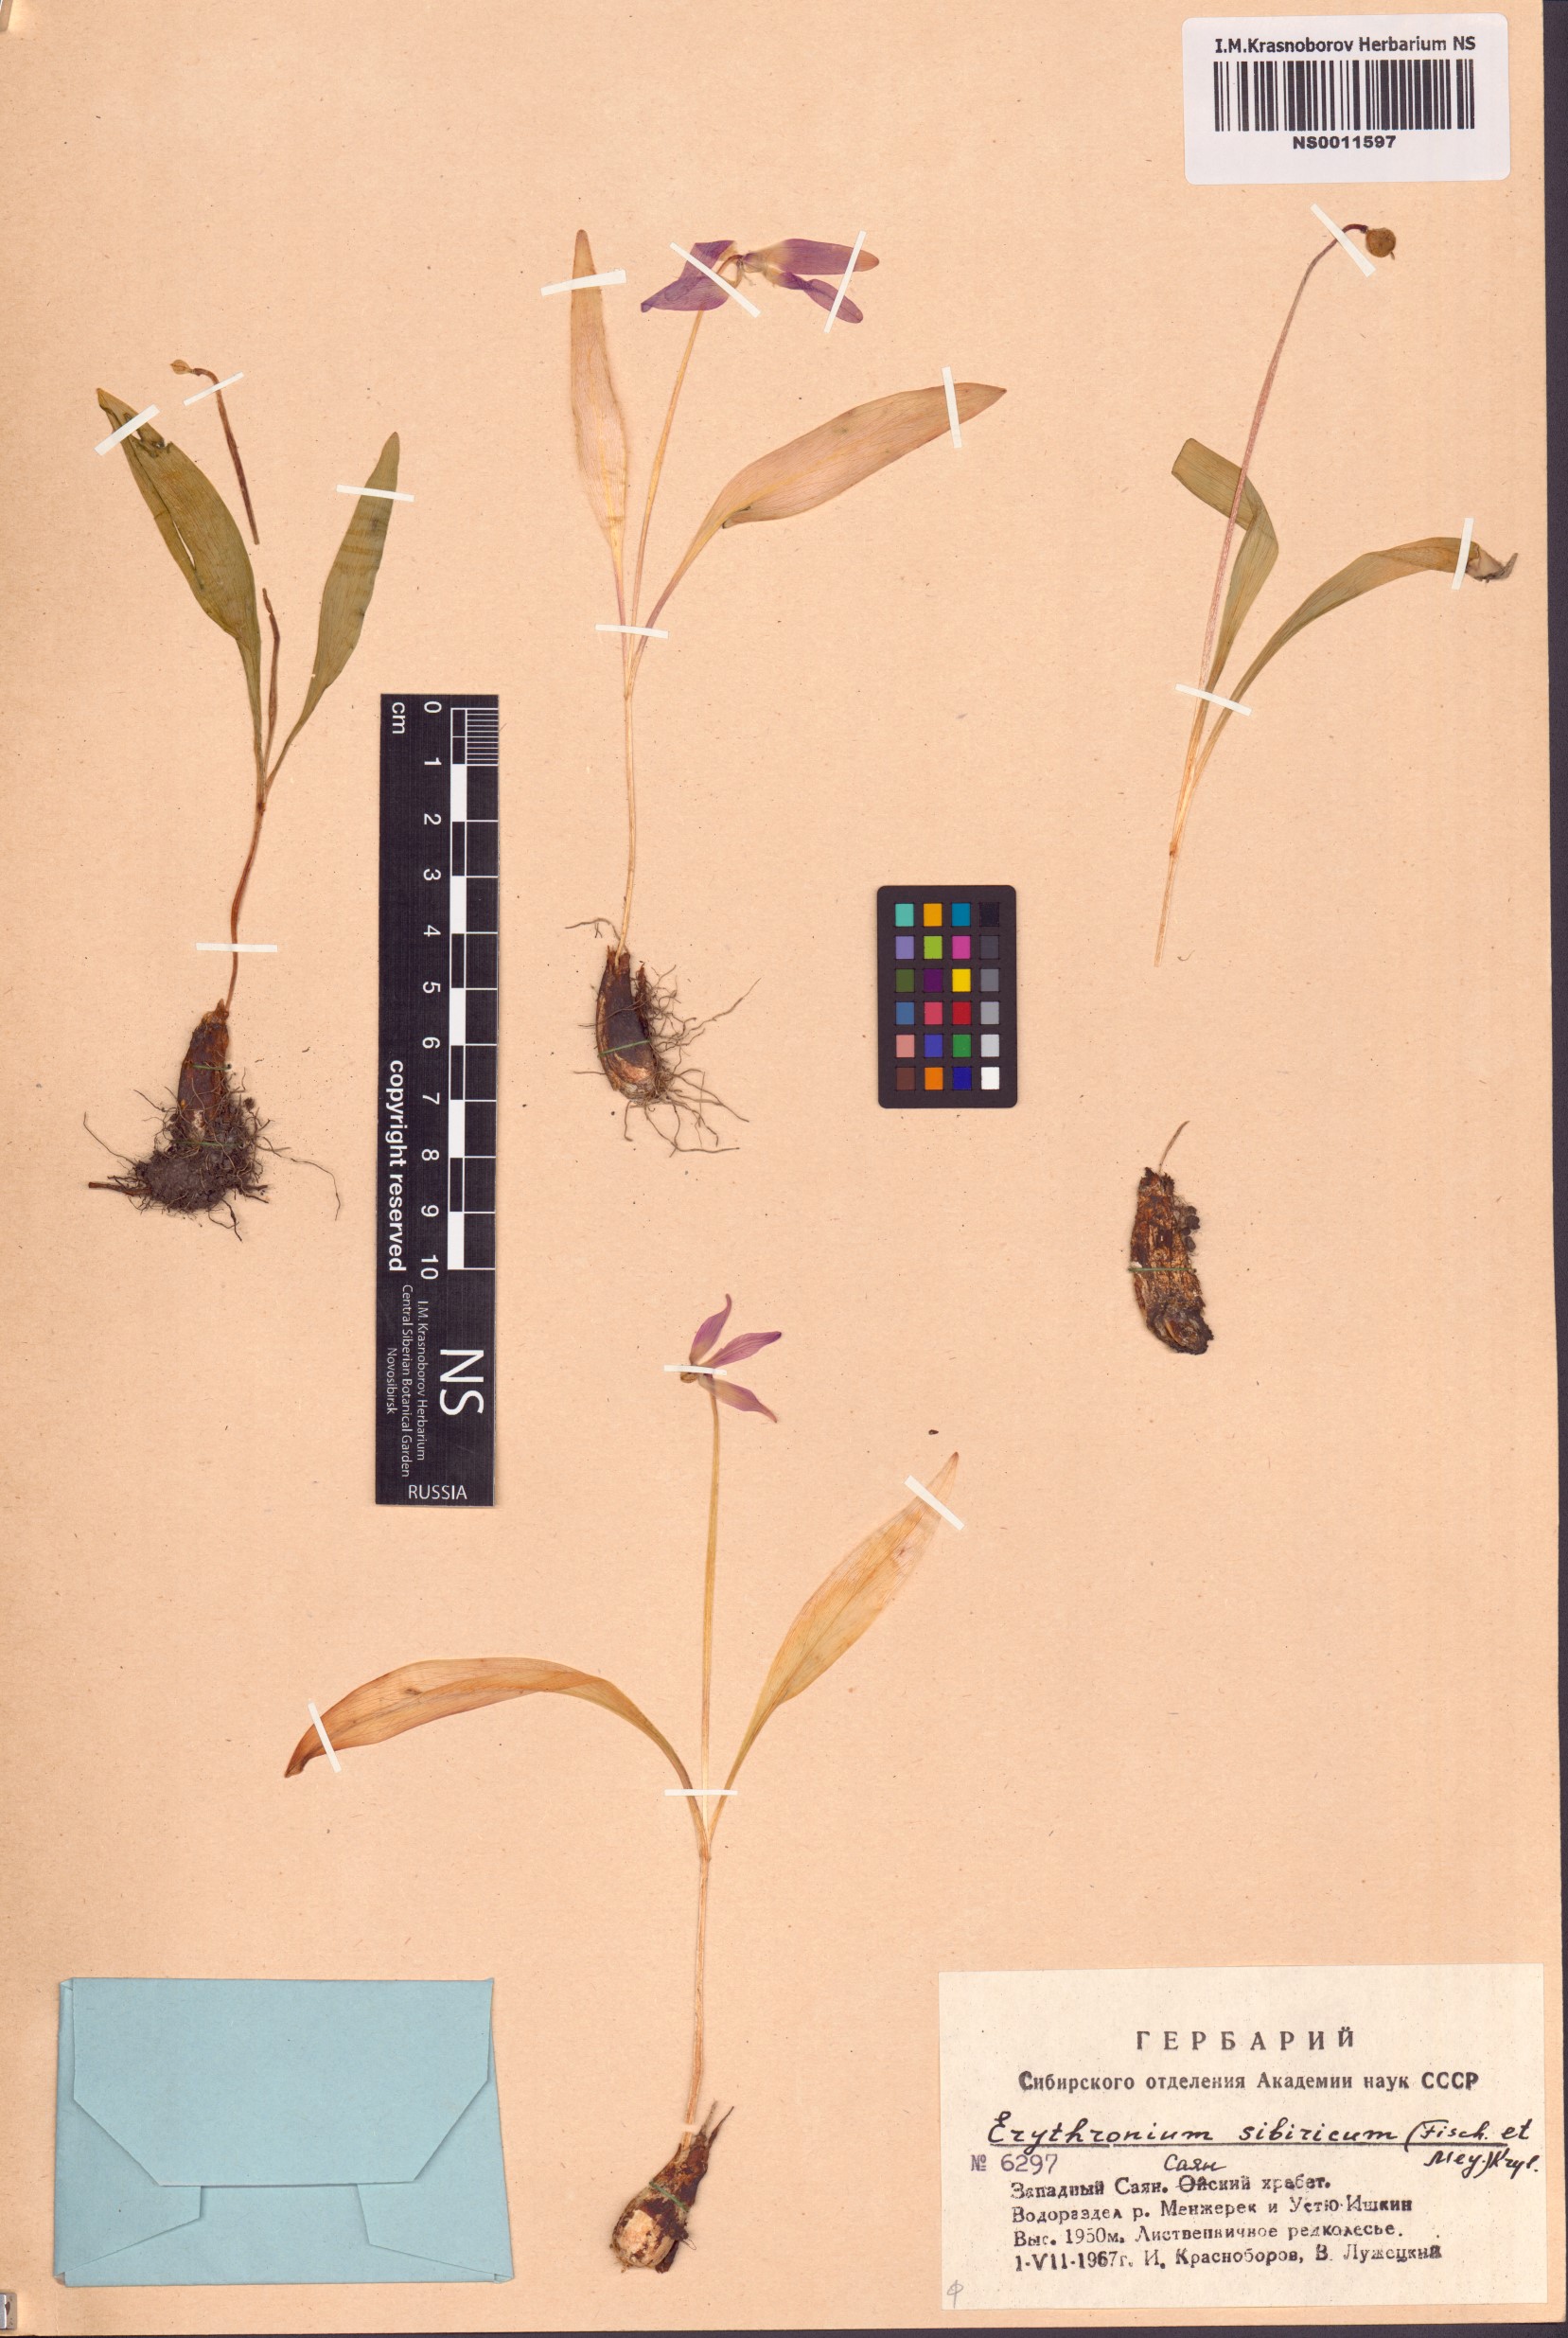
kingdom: Plantae
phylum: Tracheophyta
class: Liliopsida
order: Liliales
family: Liliaceae
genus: Erythronium
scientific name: Erythronium sibiricum
